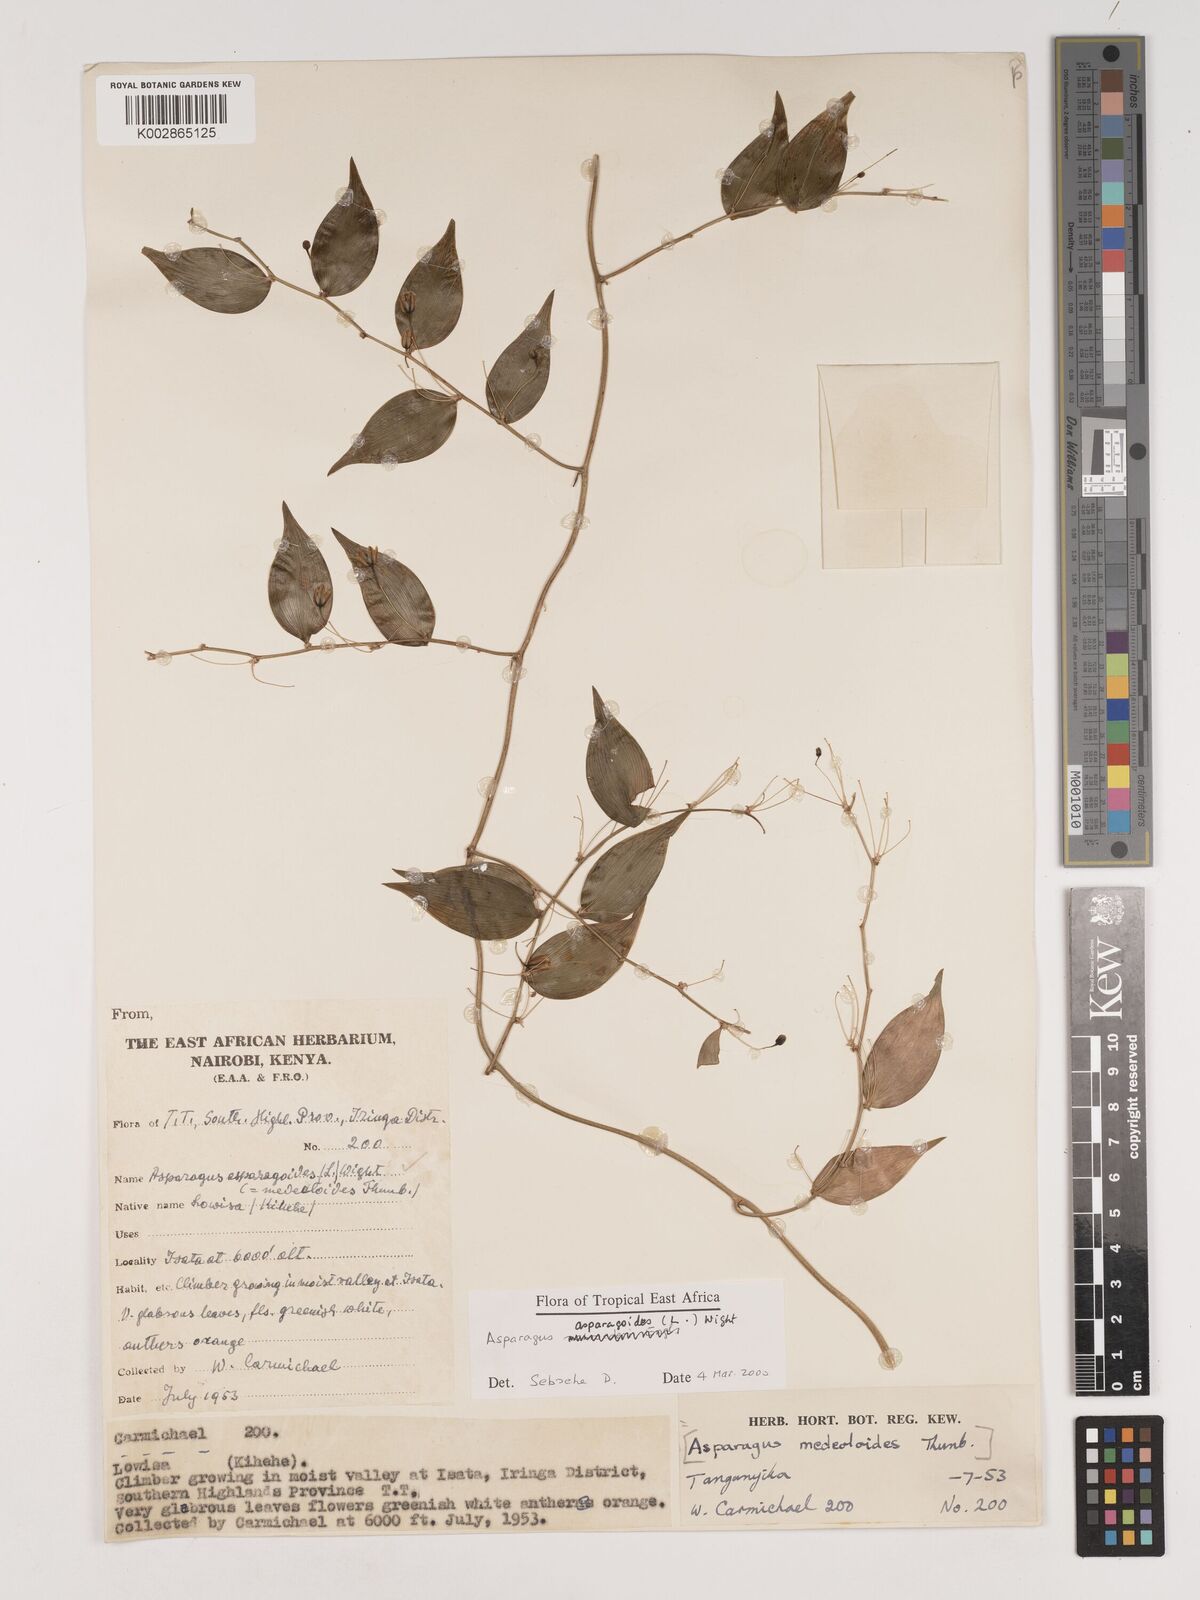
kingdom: Plantae
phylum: Tracheophyta
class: Liliopsida
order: Asparagales
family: Asparagaceae
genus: Asparagus
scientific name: Asparagus asparagoides
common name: African asparagus fern
